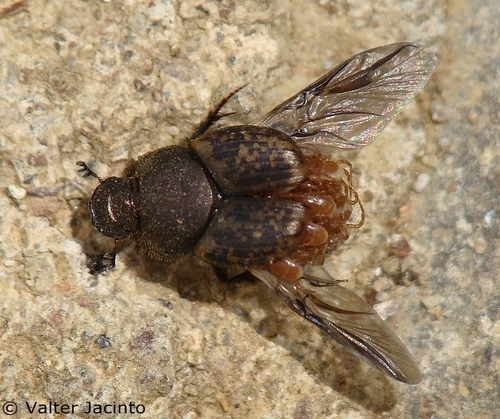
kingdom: Animalia
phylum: Arthropoda
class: Insecta
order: Coleoptera
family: Scarabaeidae
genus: Onthophagus
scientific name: Onthophagus
